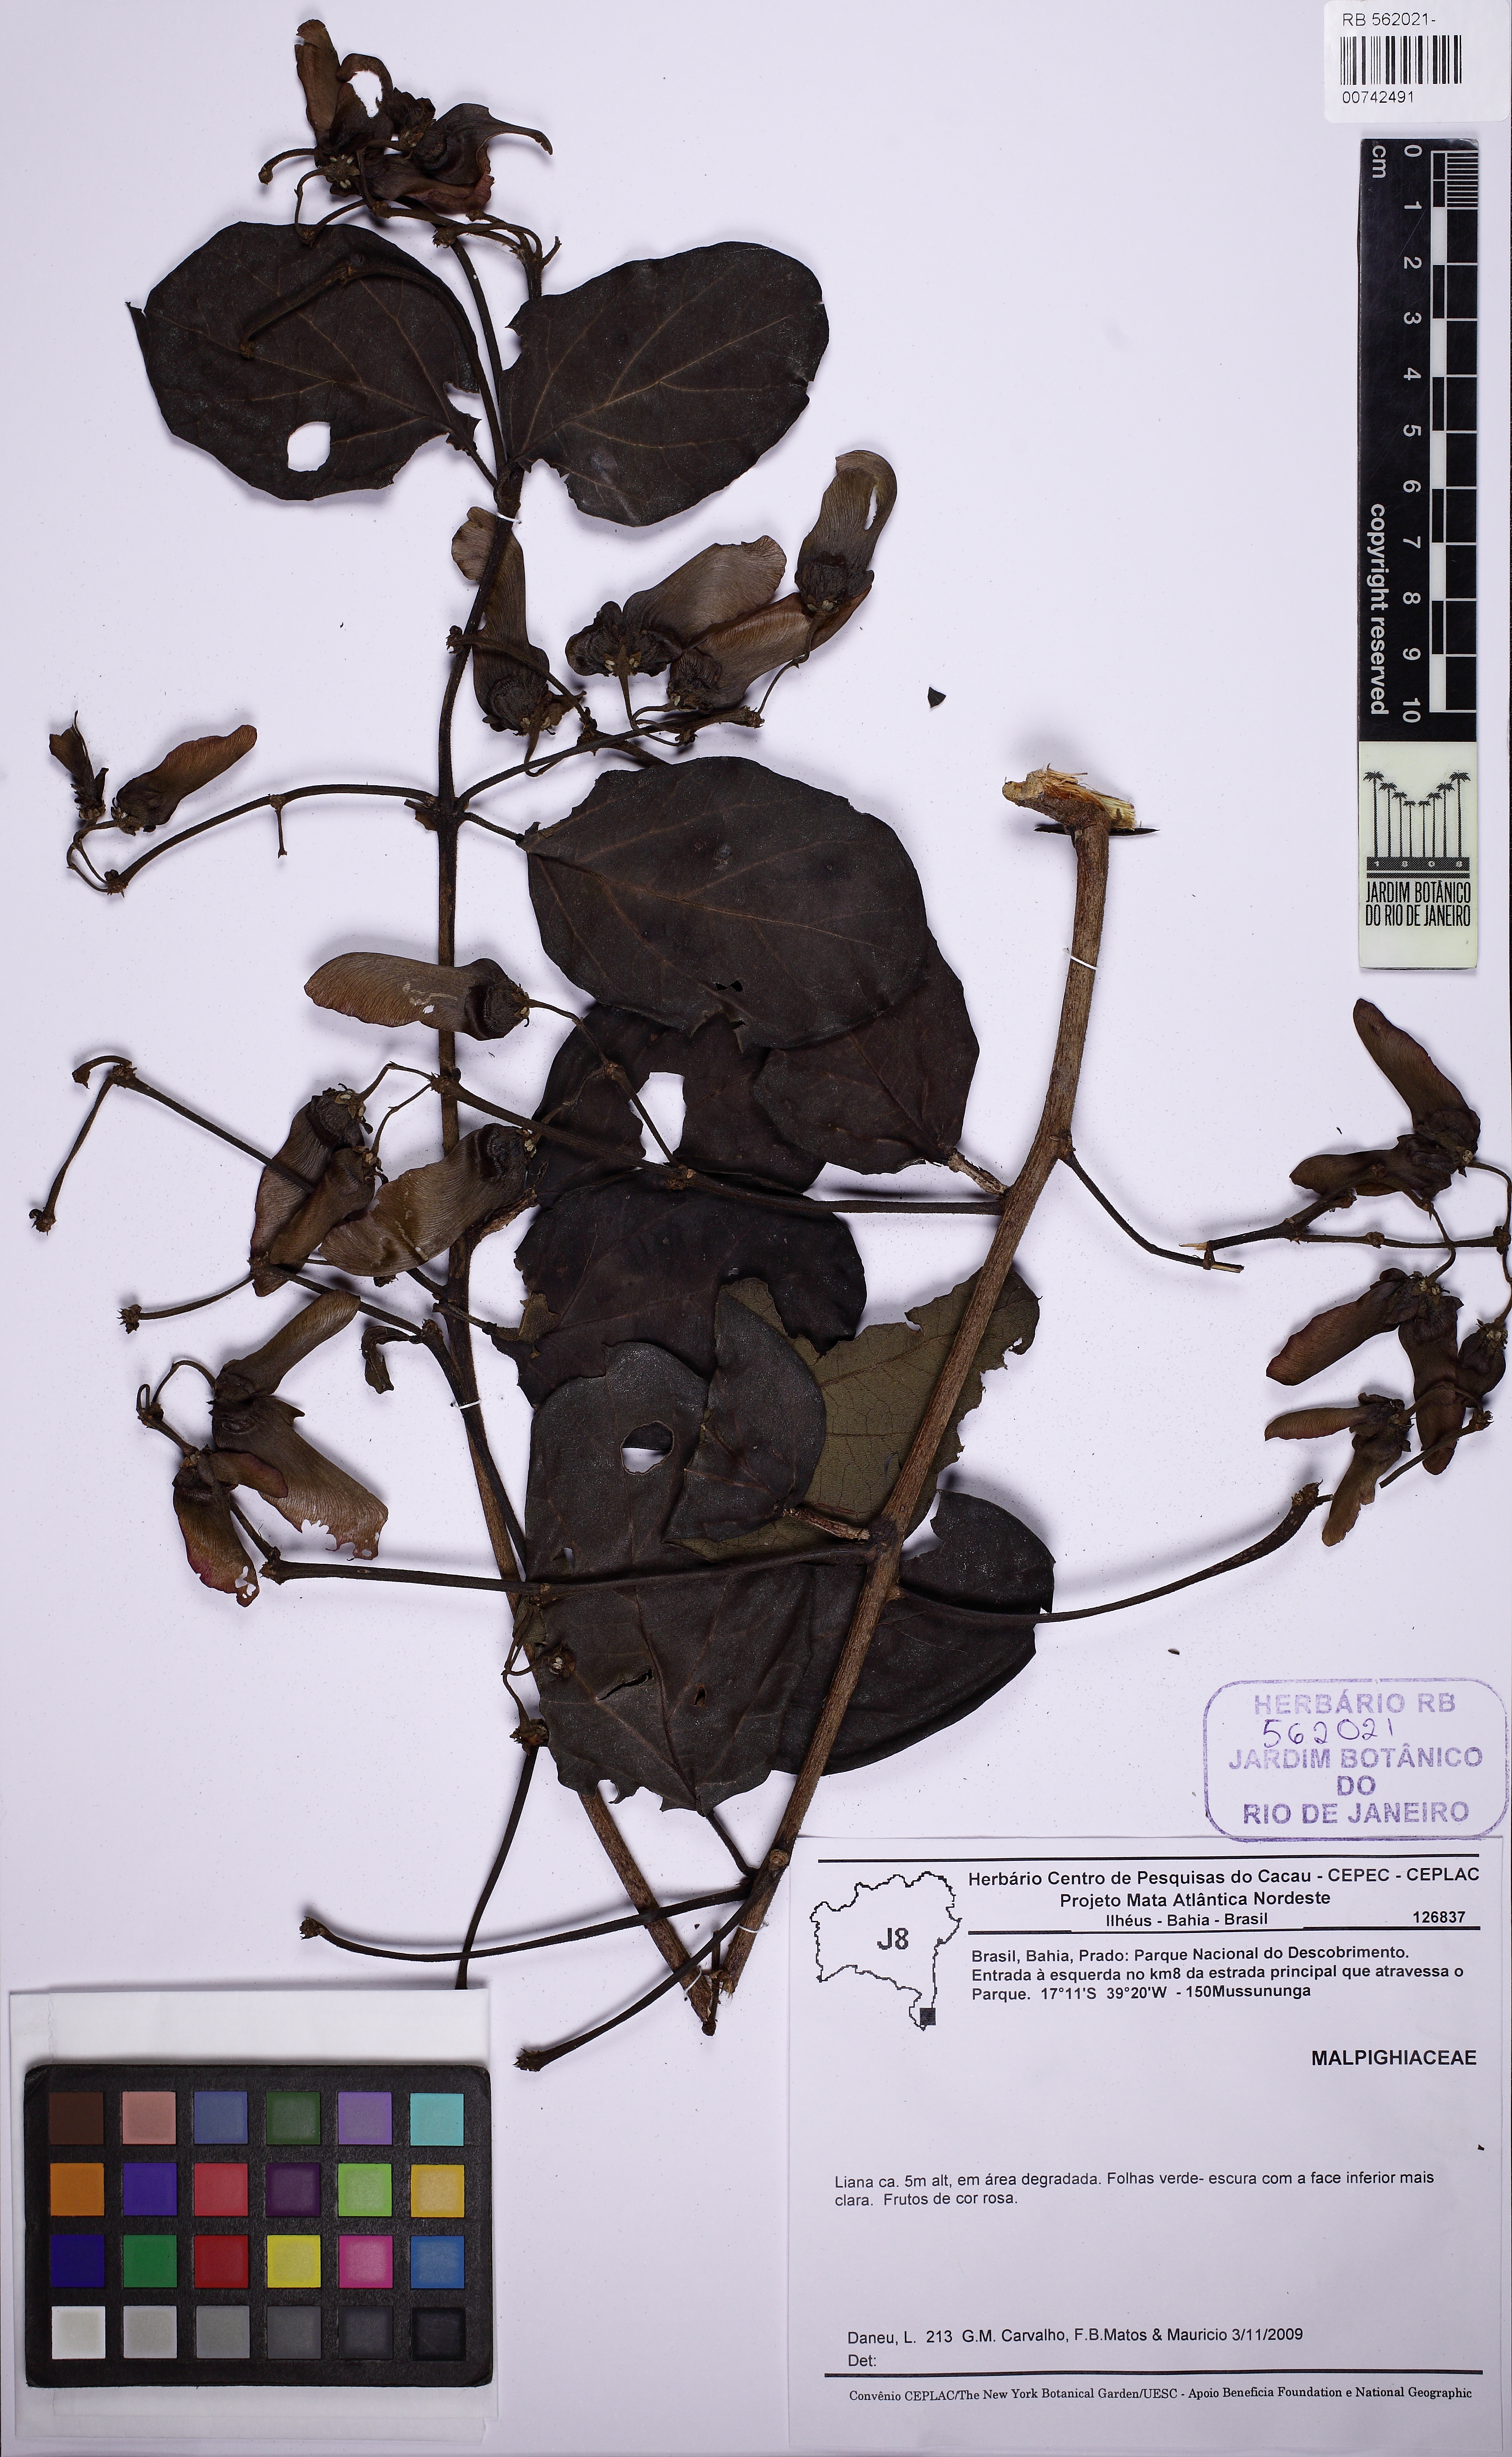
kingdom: Plantae
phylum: Tracheophyta
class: Magnoliopsida
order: Malpighiales
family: Malpighiaceae
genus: Stigmaphyllon
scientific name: Stigmaphyllon blanchetii
